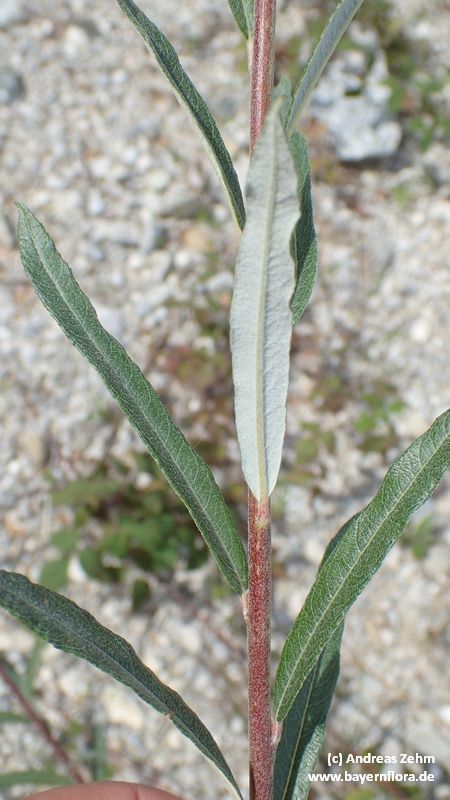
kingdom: Plantae
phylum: Tracheophyta
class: Magnoliopsida
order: Malpighiales
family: Salicaceae
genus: Salix
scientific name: Salix eleagnos
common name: Elaeagnus willow
